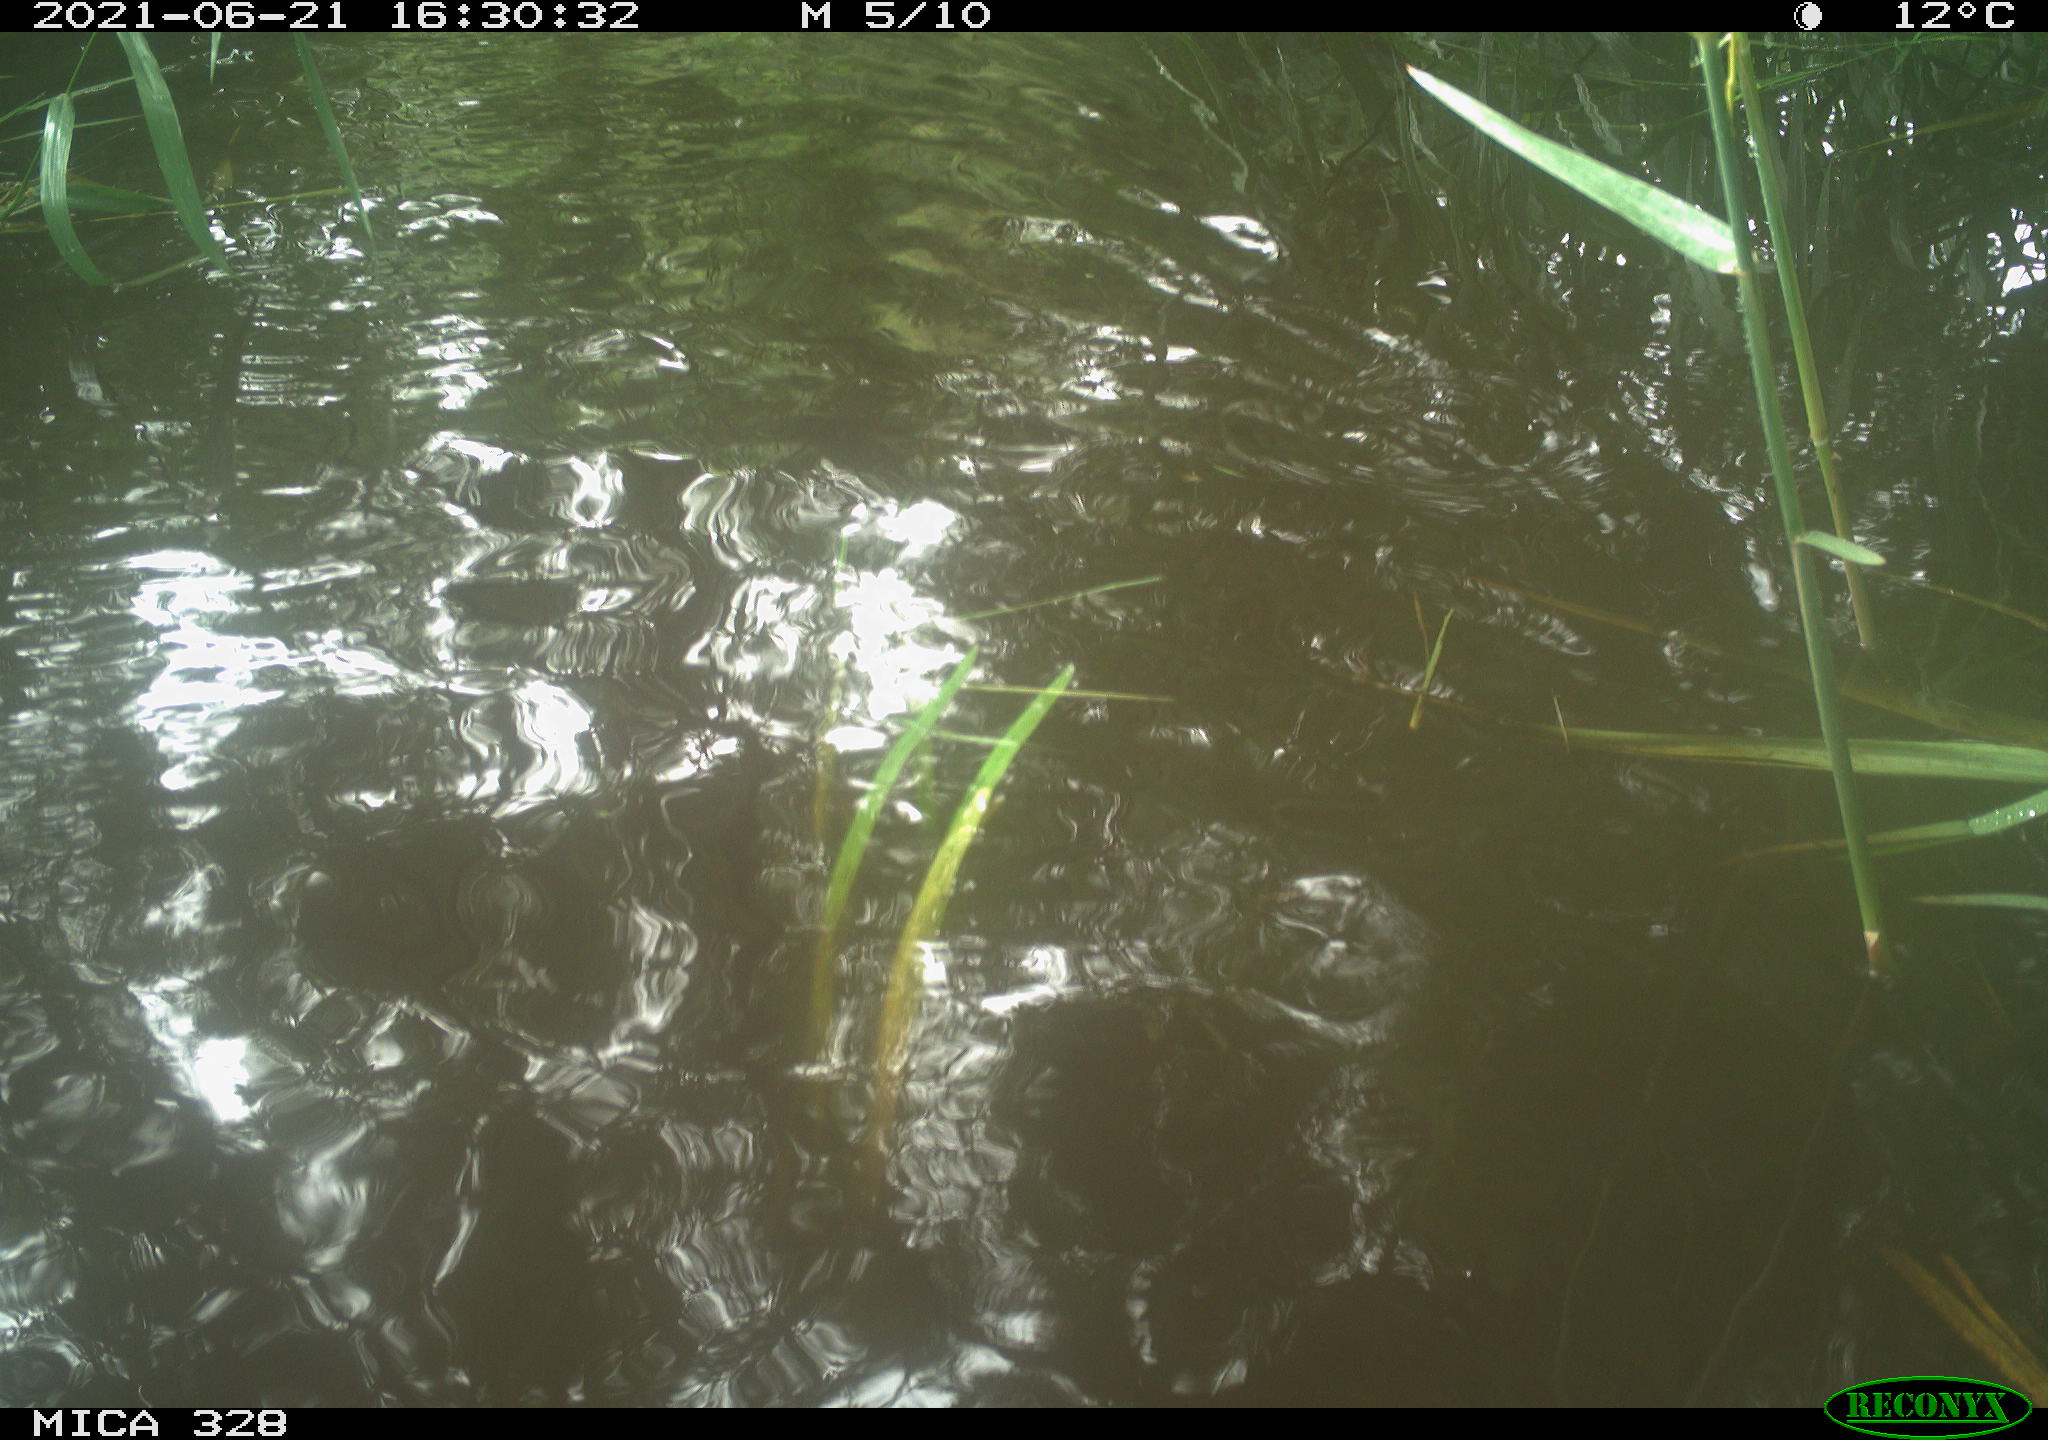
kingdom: Animalia
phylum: Chordata
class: Aves
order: Anseriformes
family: Anatidae
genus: Aix
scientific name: Aix galericulata
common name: Mandarin duck
